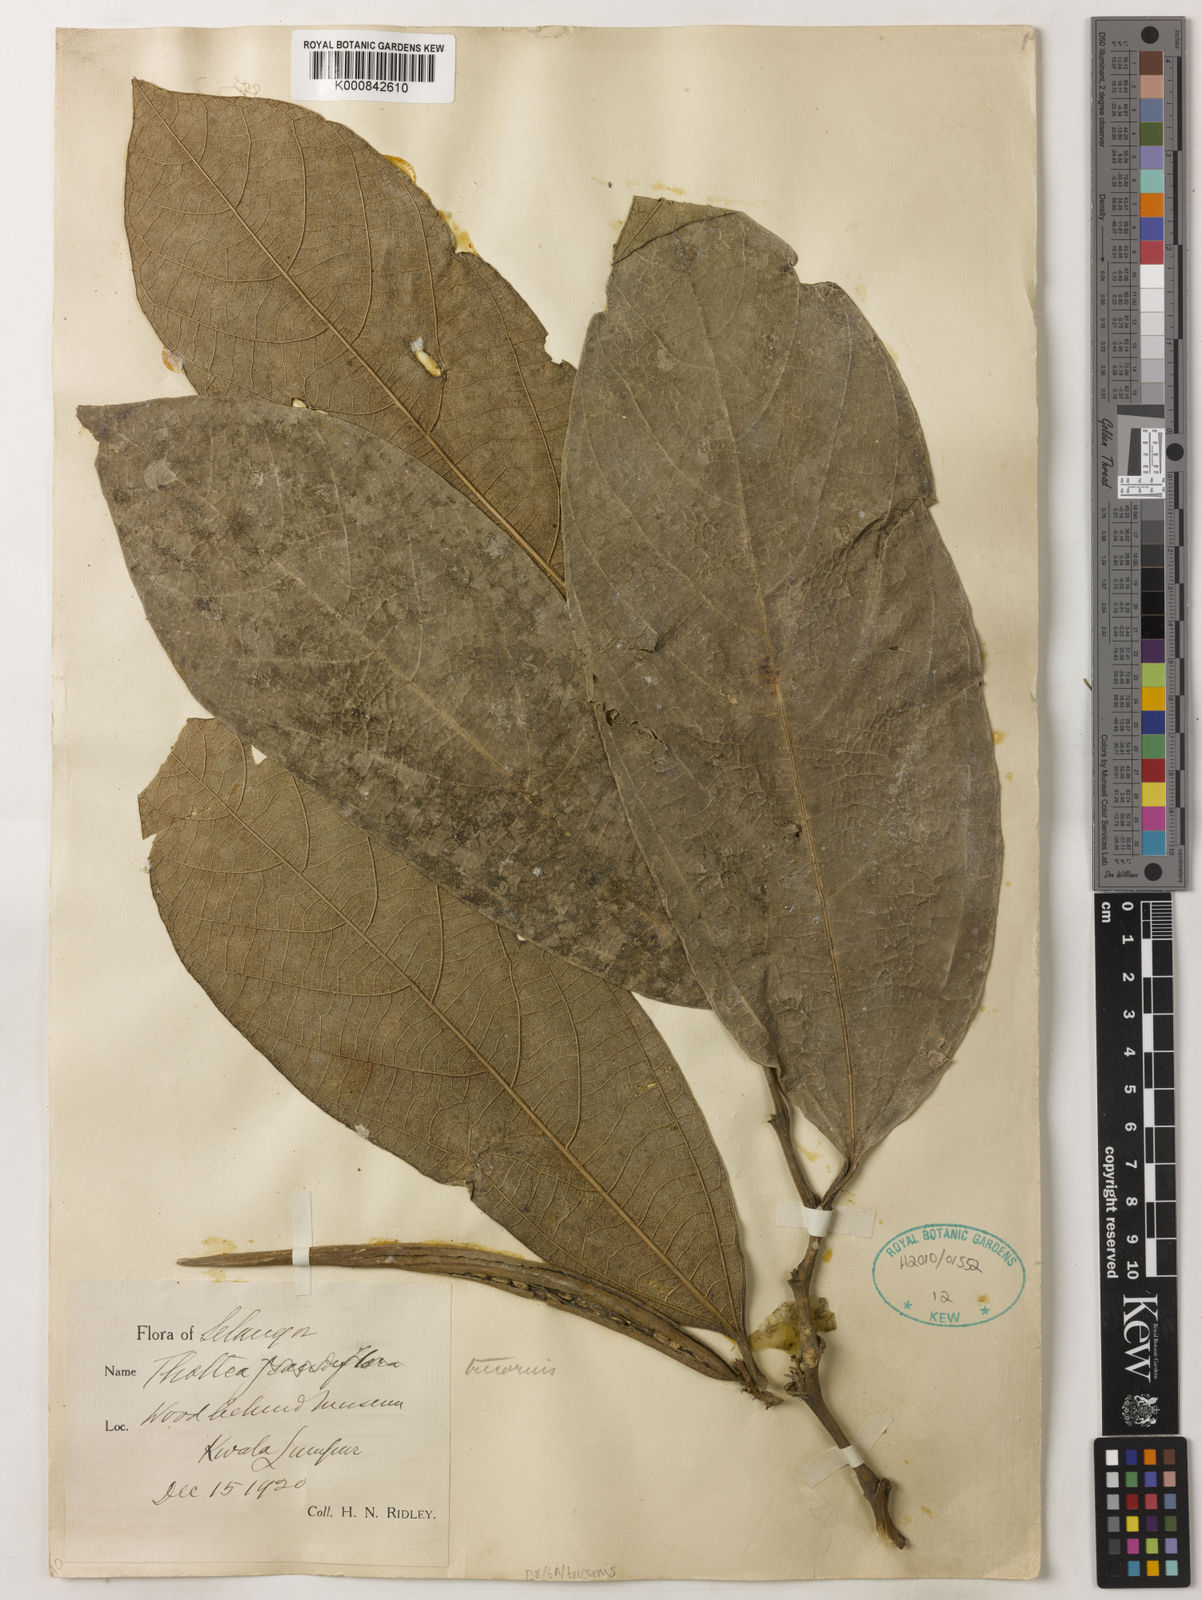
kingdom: Plantae
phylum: Tracheophyta
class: Magnoliopsida
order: Piperales
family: Aristolochiaceae
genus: Thottea
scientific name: Thottea tricornis
